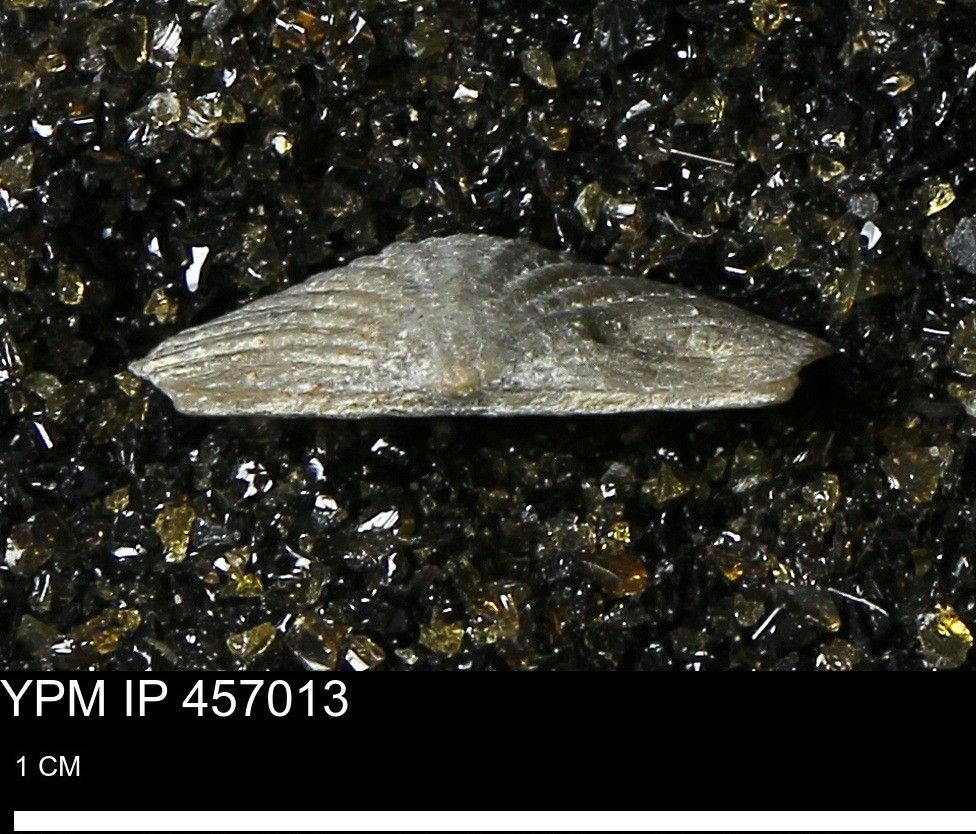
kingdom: Animalia
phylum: Brachiopoda
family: Stropheodontidae
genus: Strophodonta
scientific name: Strophodonta
